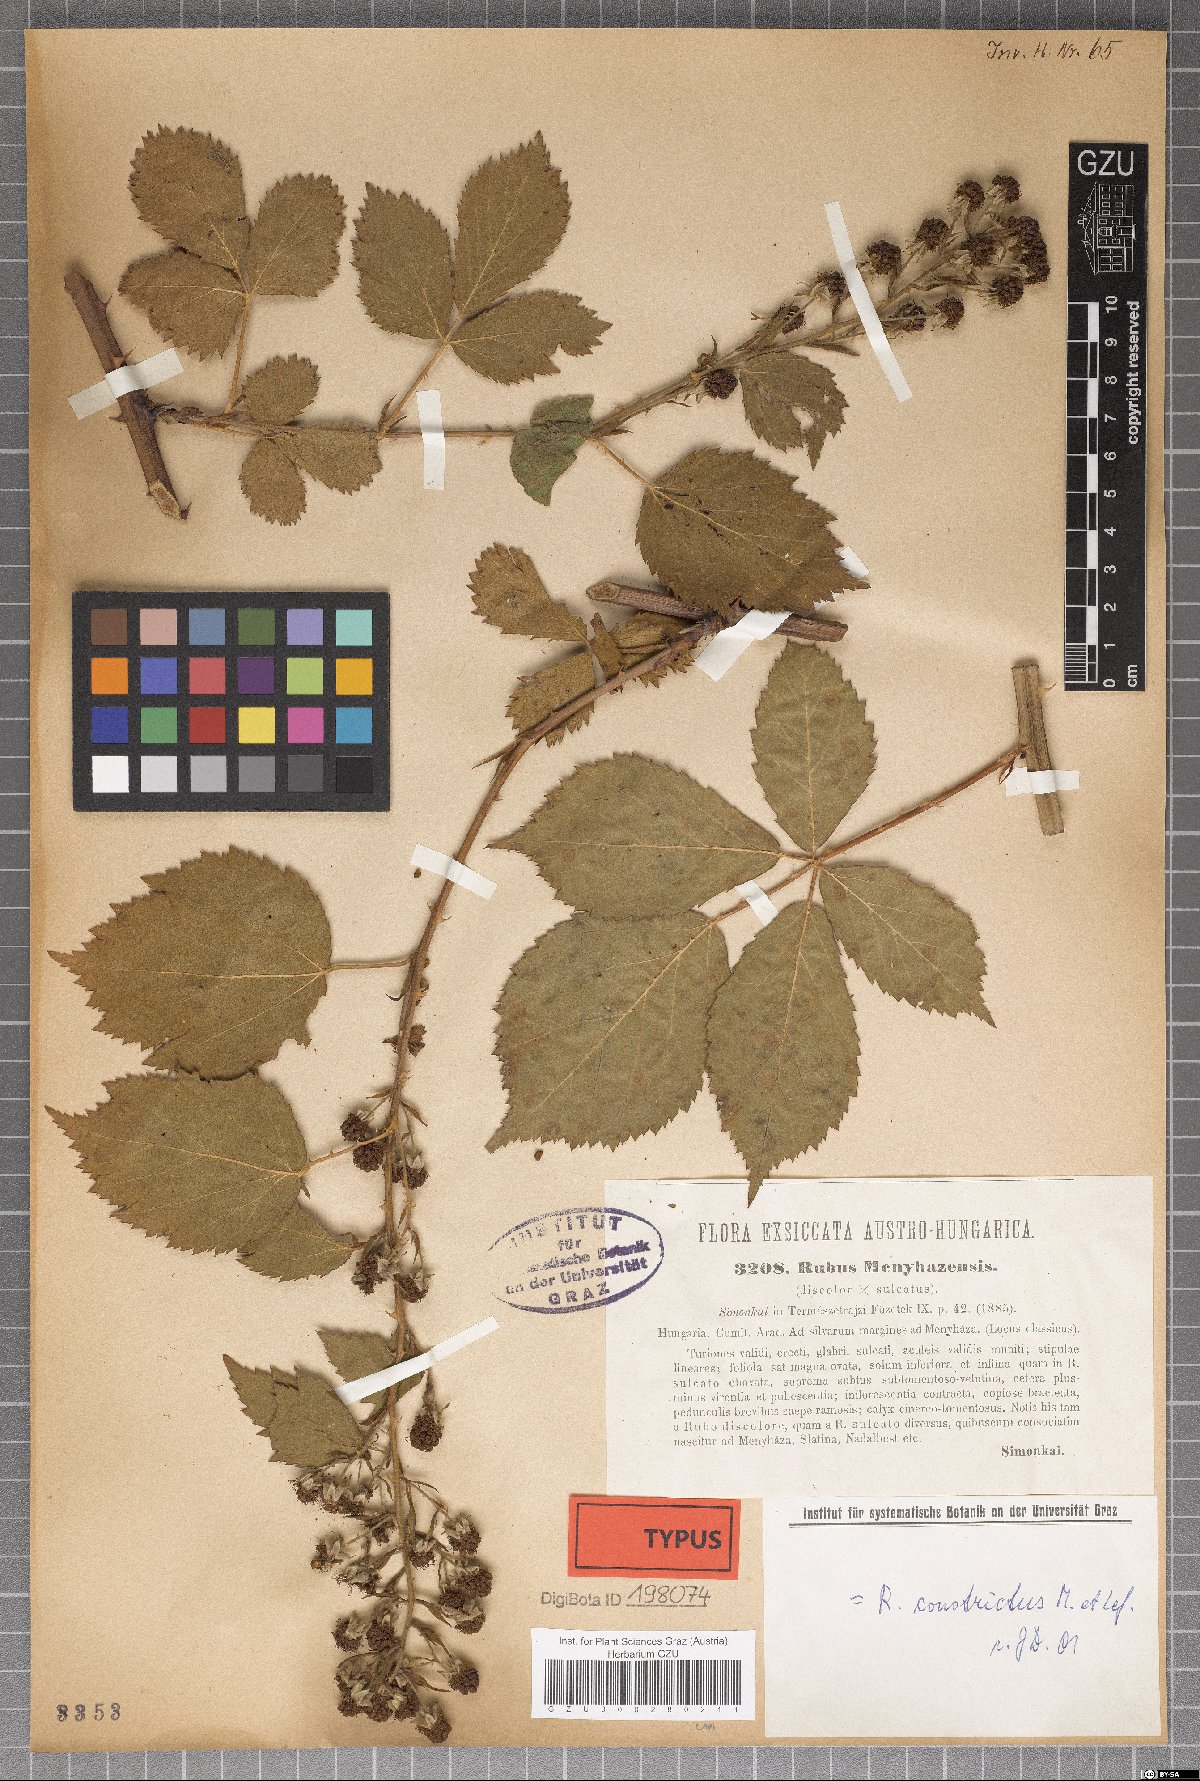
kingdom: Plantae
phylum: Tracheophyta
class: Magnoliopsida
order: Rosales
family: Rosaceae
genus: Rubus
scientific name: Rubus constrictus
